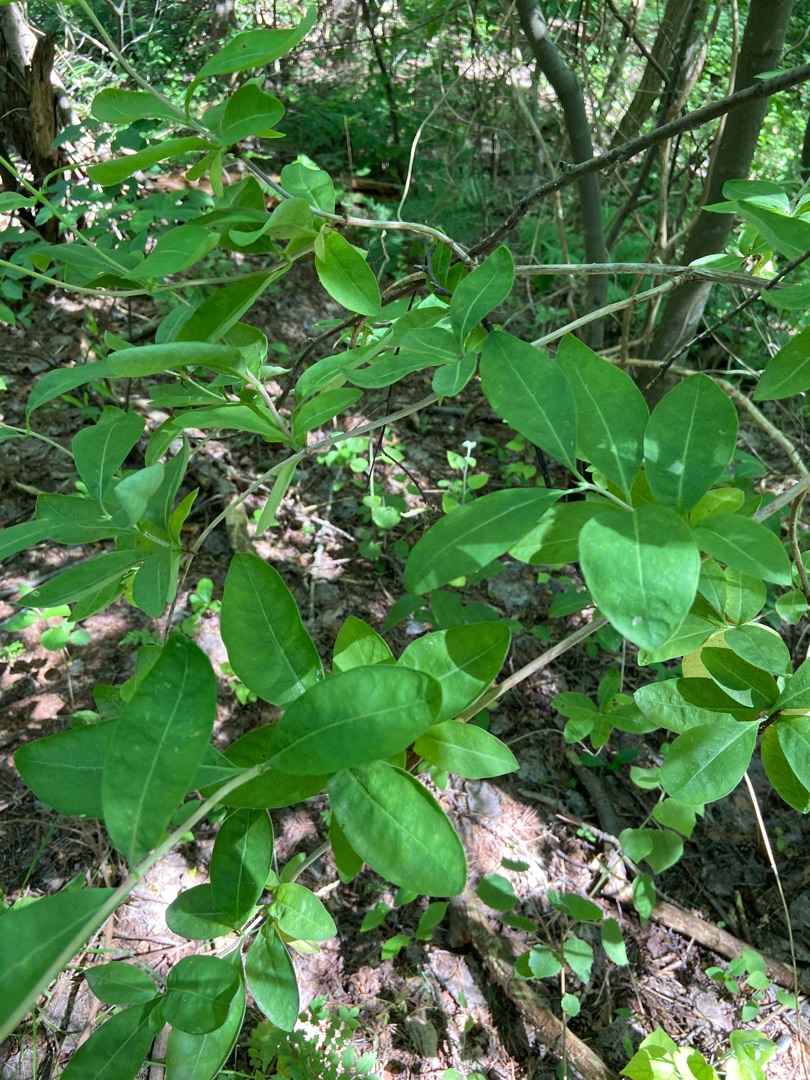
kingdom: Plantae
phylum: Tracheophyta
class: Magnoliopsida
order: Dipsacales
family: Caprifoliaceae
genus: Lonicera
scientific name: Lonicera periclymenum
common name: Almindelig gedeblad
